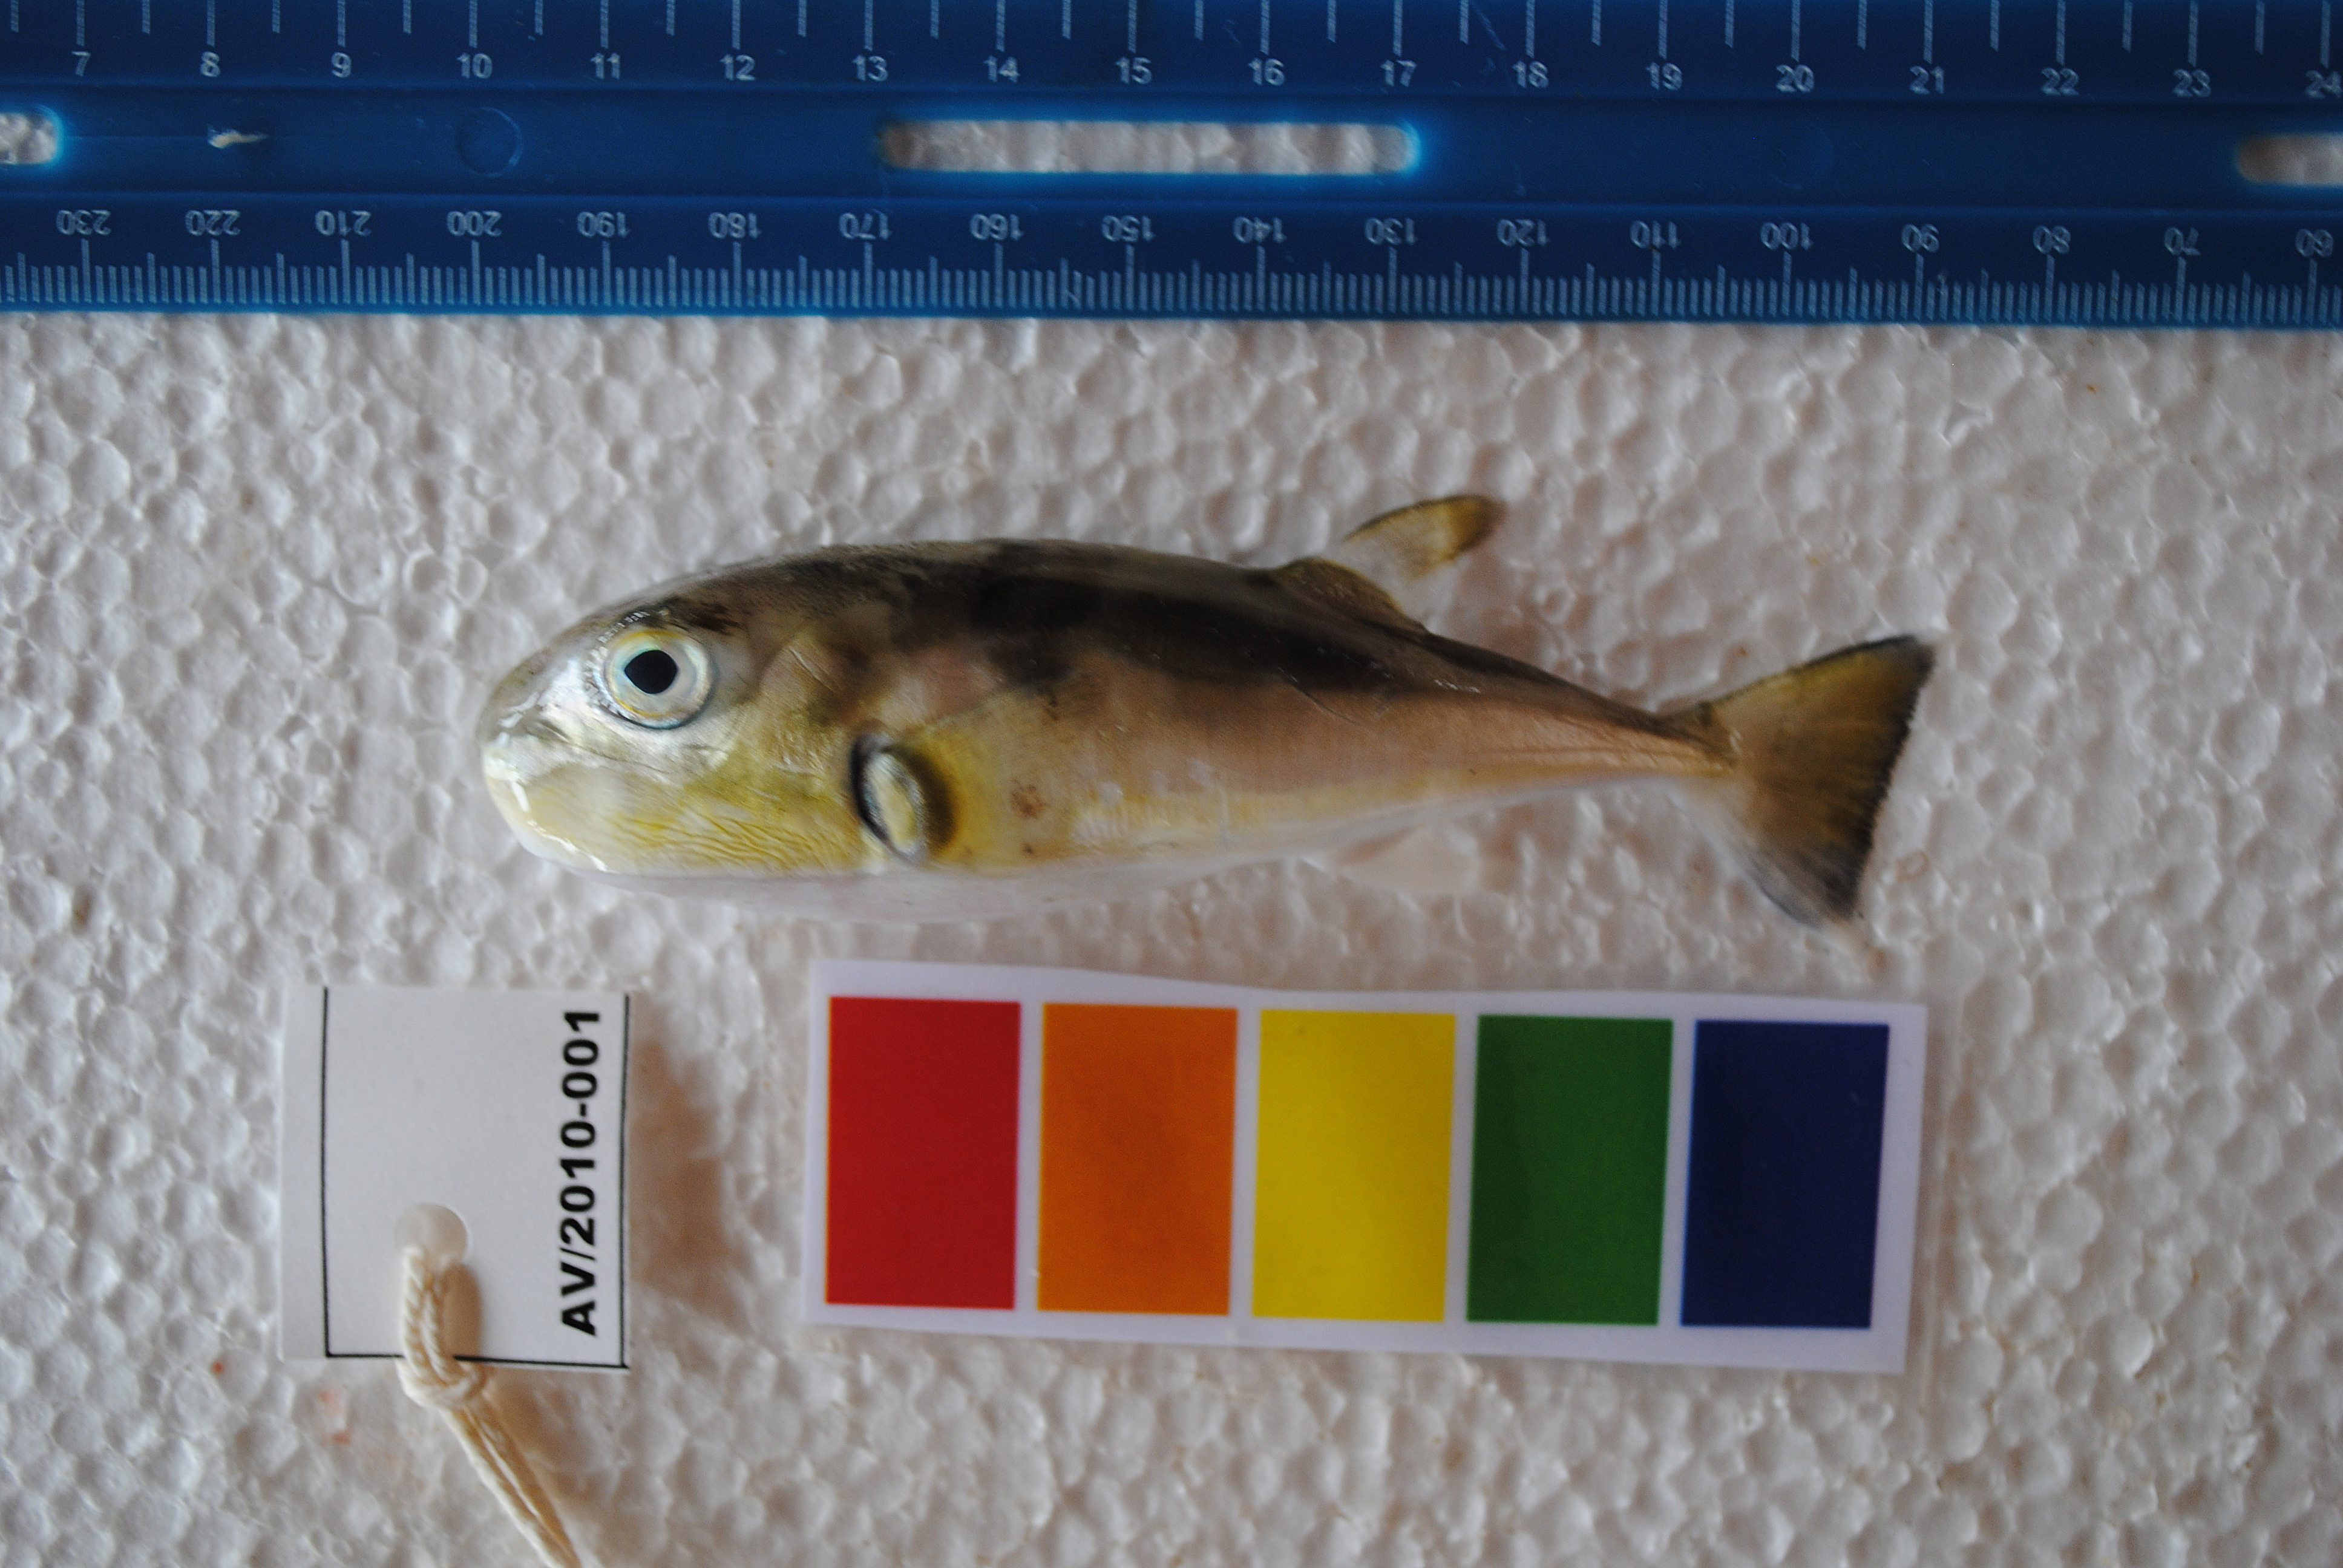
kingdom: Animalia
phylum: Chordata
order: Tetraodontiformes
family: Tetraodontidae
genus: Lagocephalus
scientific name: Lagocephalus guentheri
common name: Diamondback puffer
